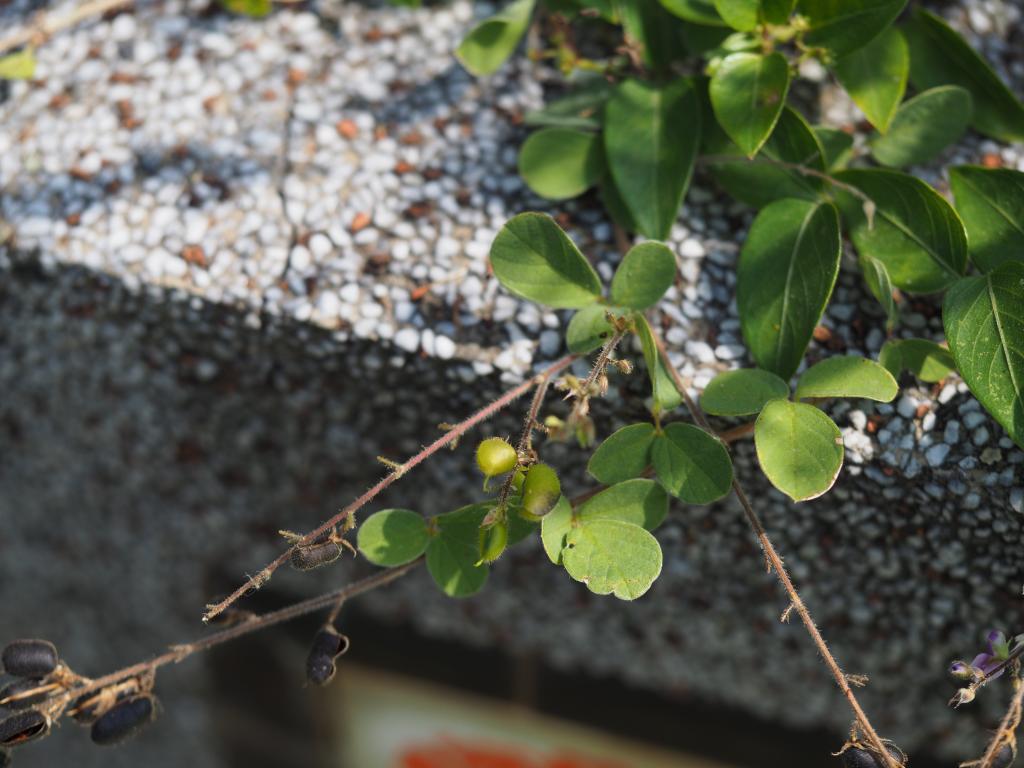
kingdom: Plantae
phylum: Tracheophyta
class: Magnoliopsida
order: Fabales
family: Fabaceae
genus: Pycnospora
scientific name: Pycnospora lutescens
